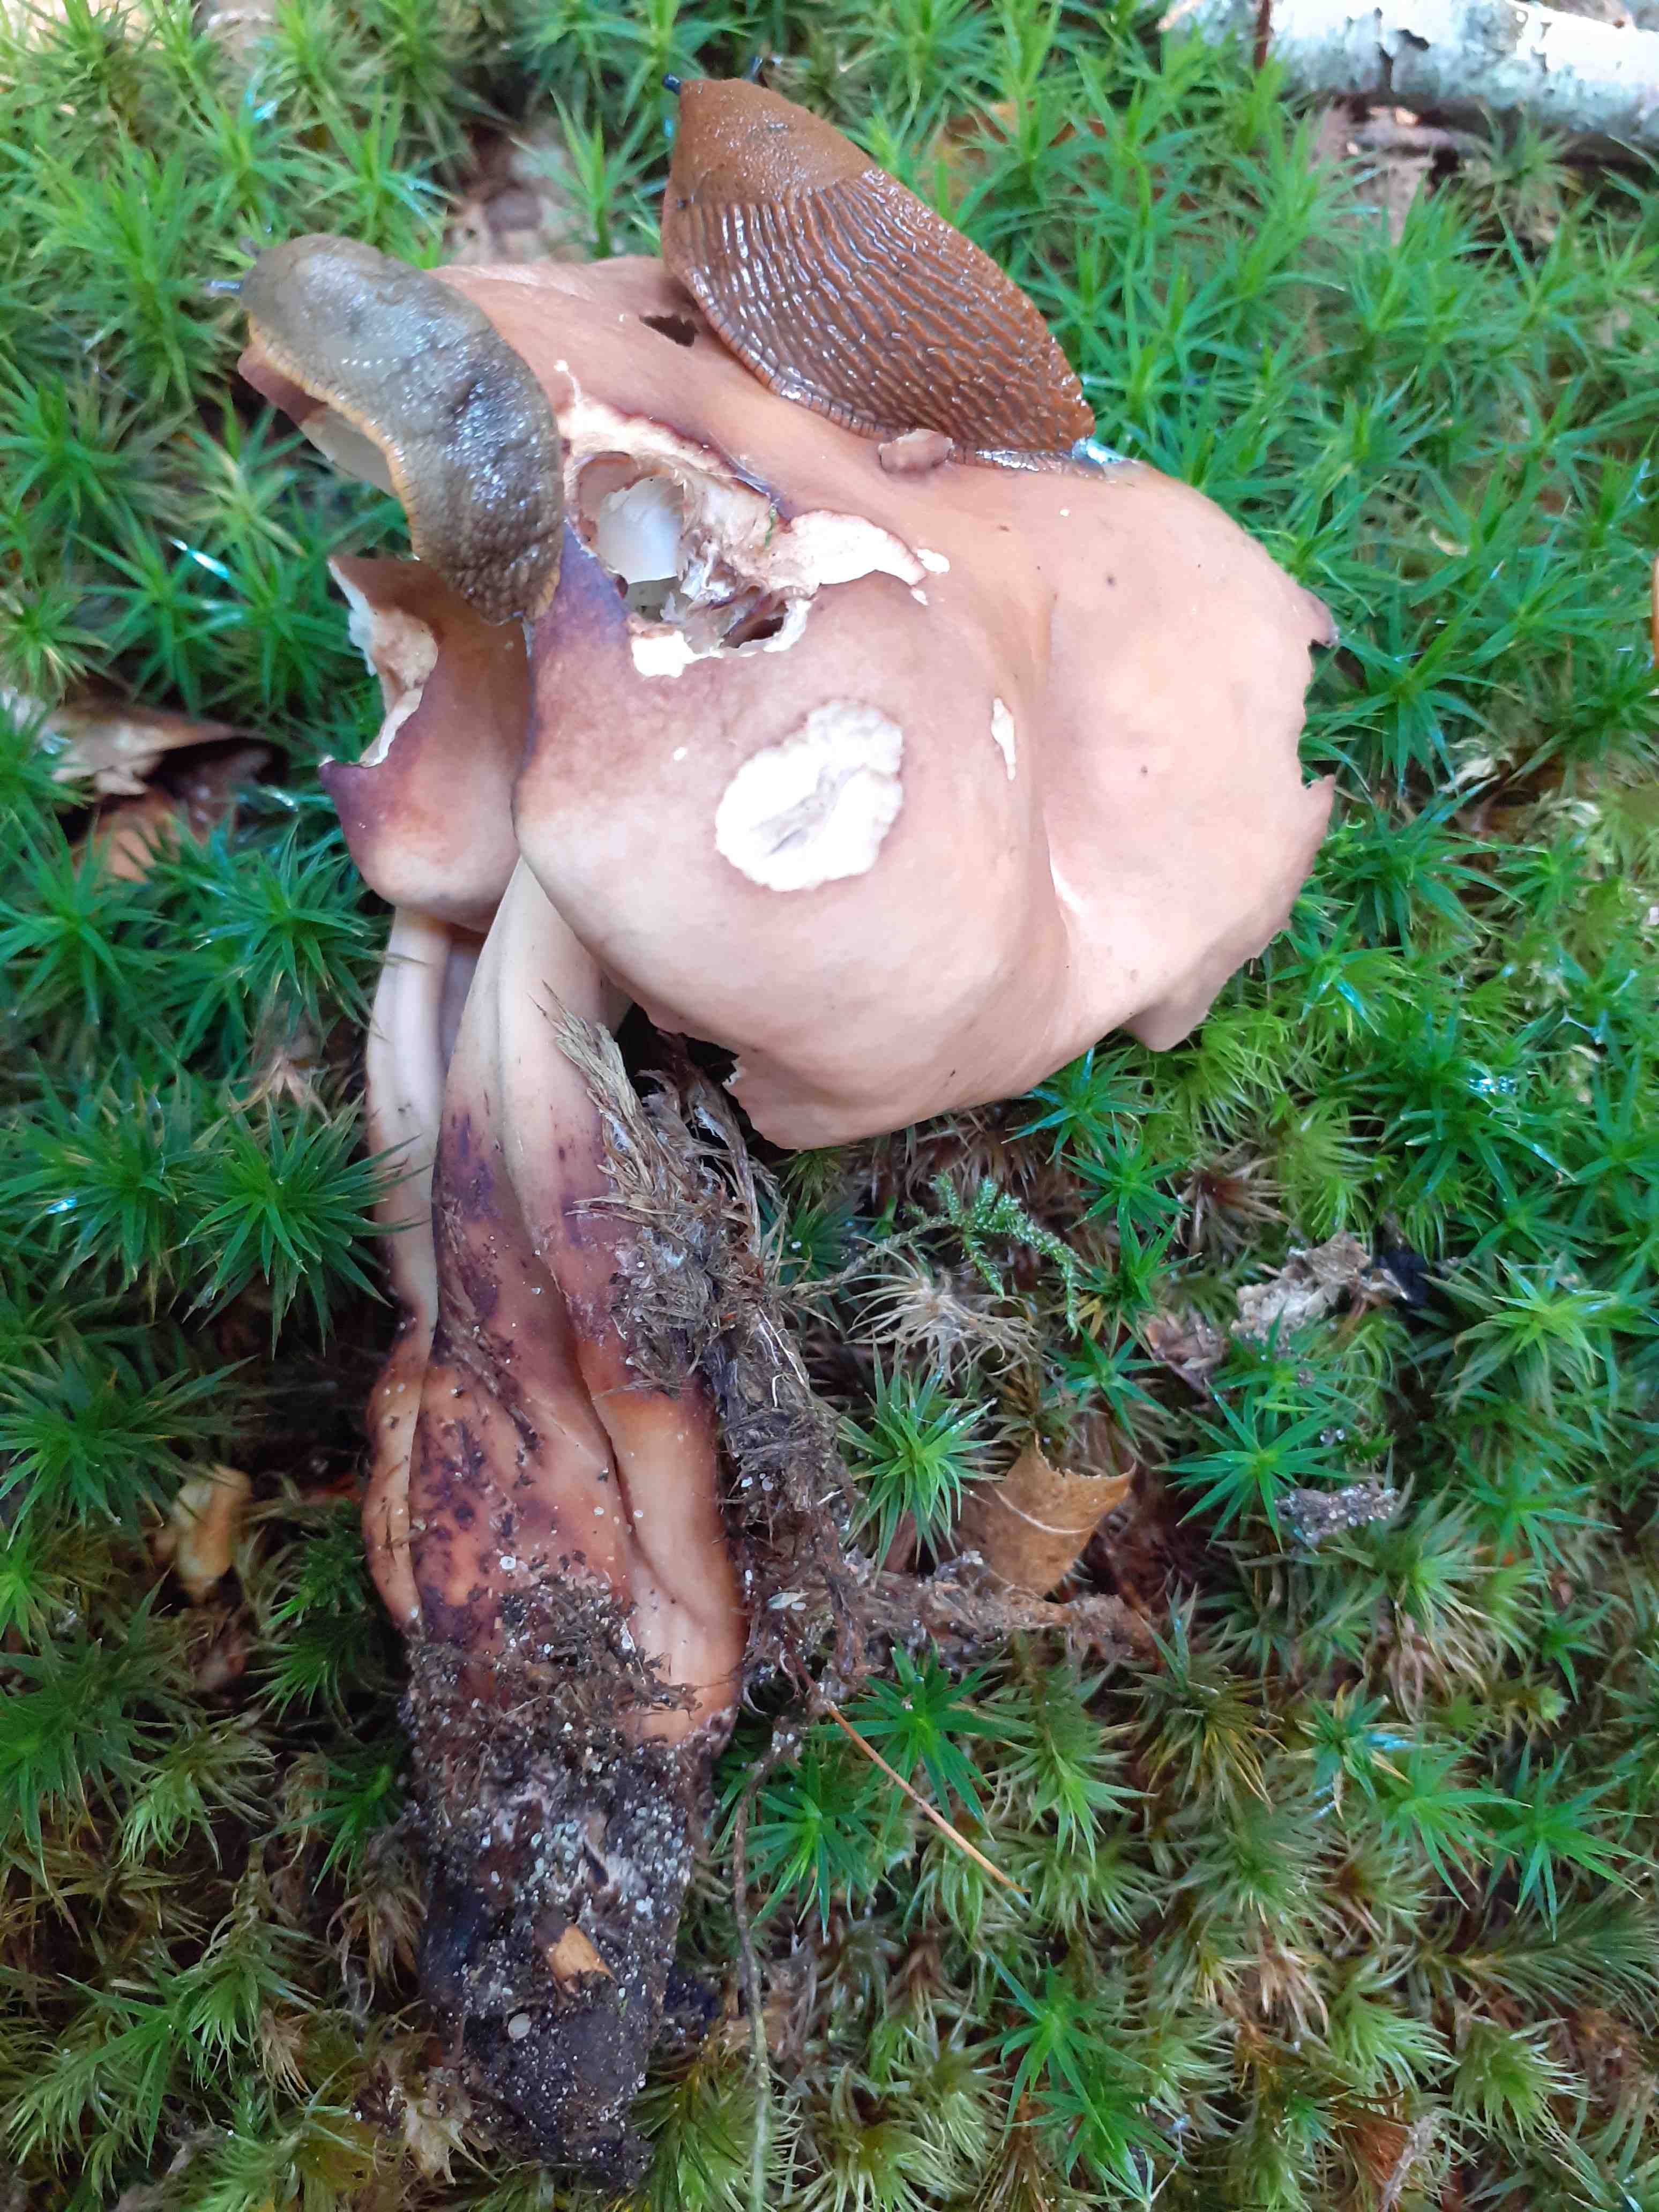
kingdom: Fungi
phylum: Basidiomycota
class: Agaricomycetes
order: Agaricales
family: Omphalotaceae
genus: Gymnopus
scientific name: Gymnopus fusipes
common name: tenstokket fladhat
